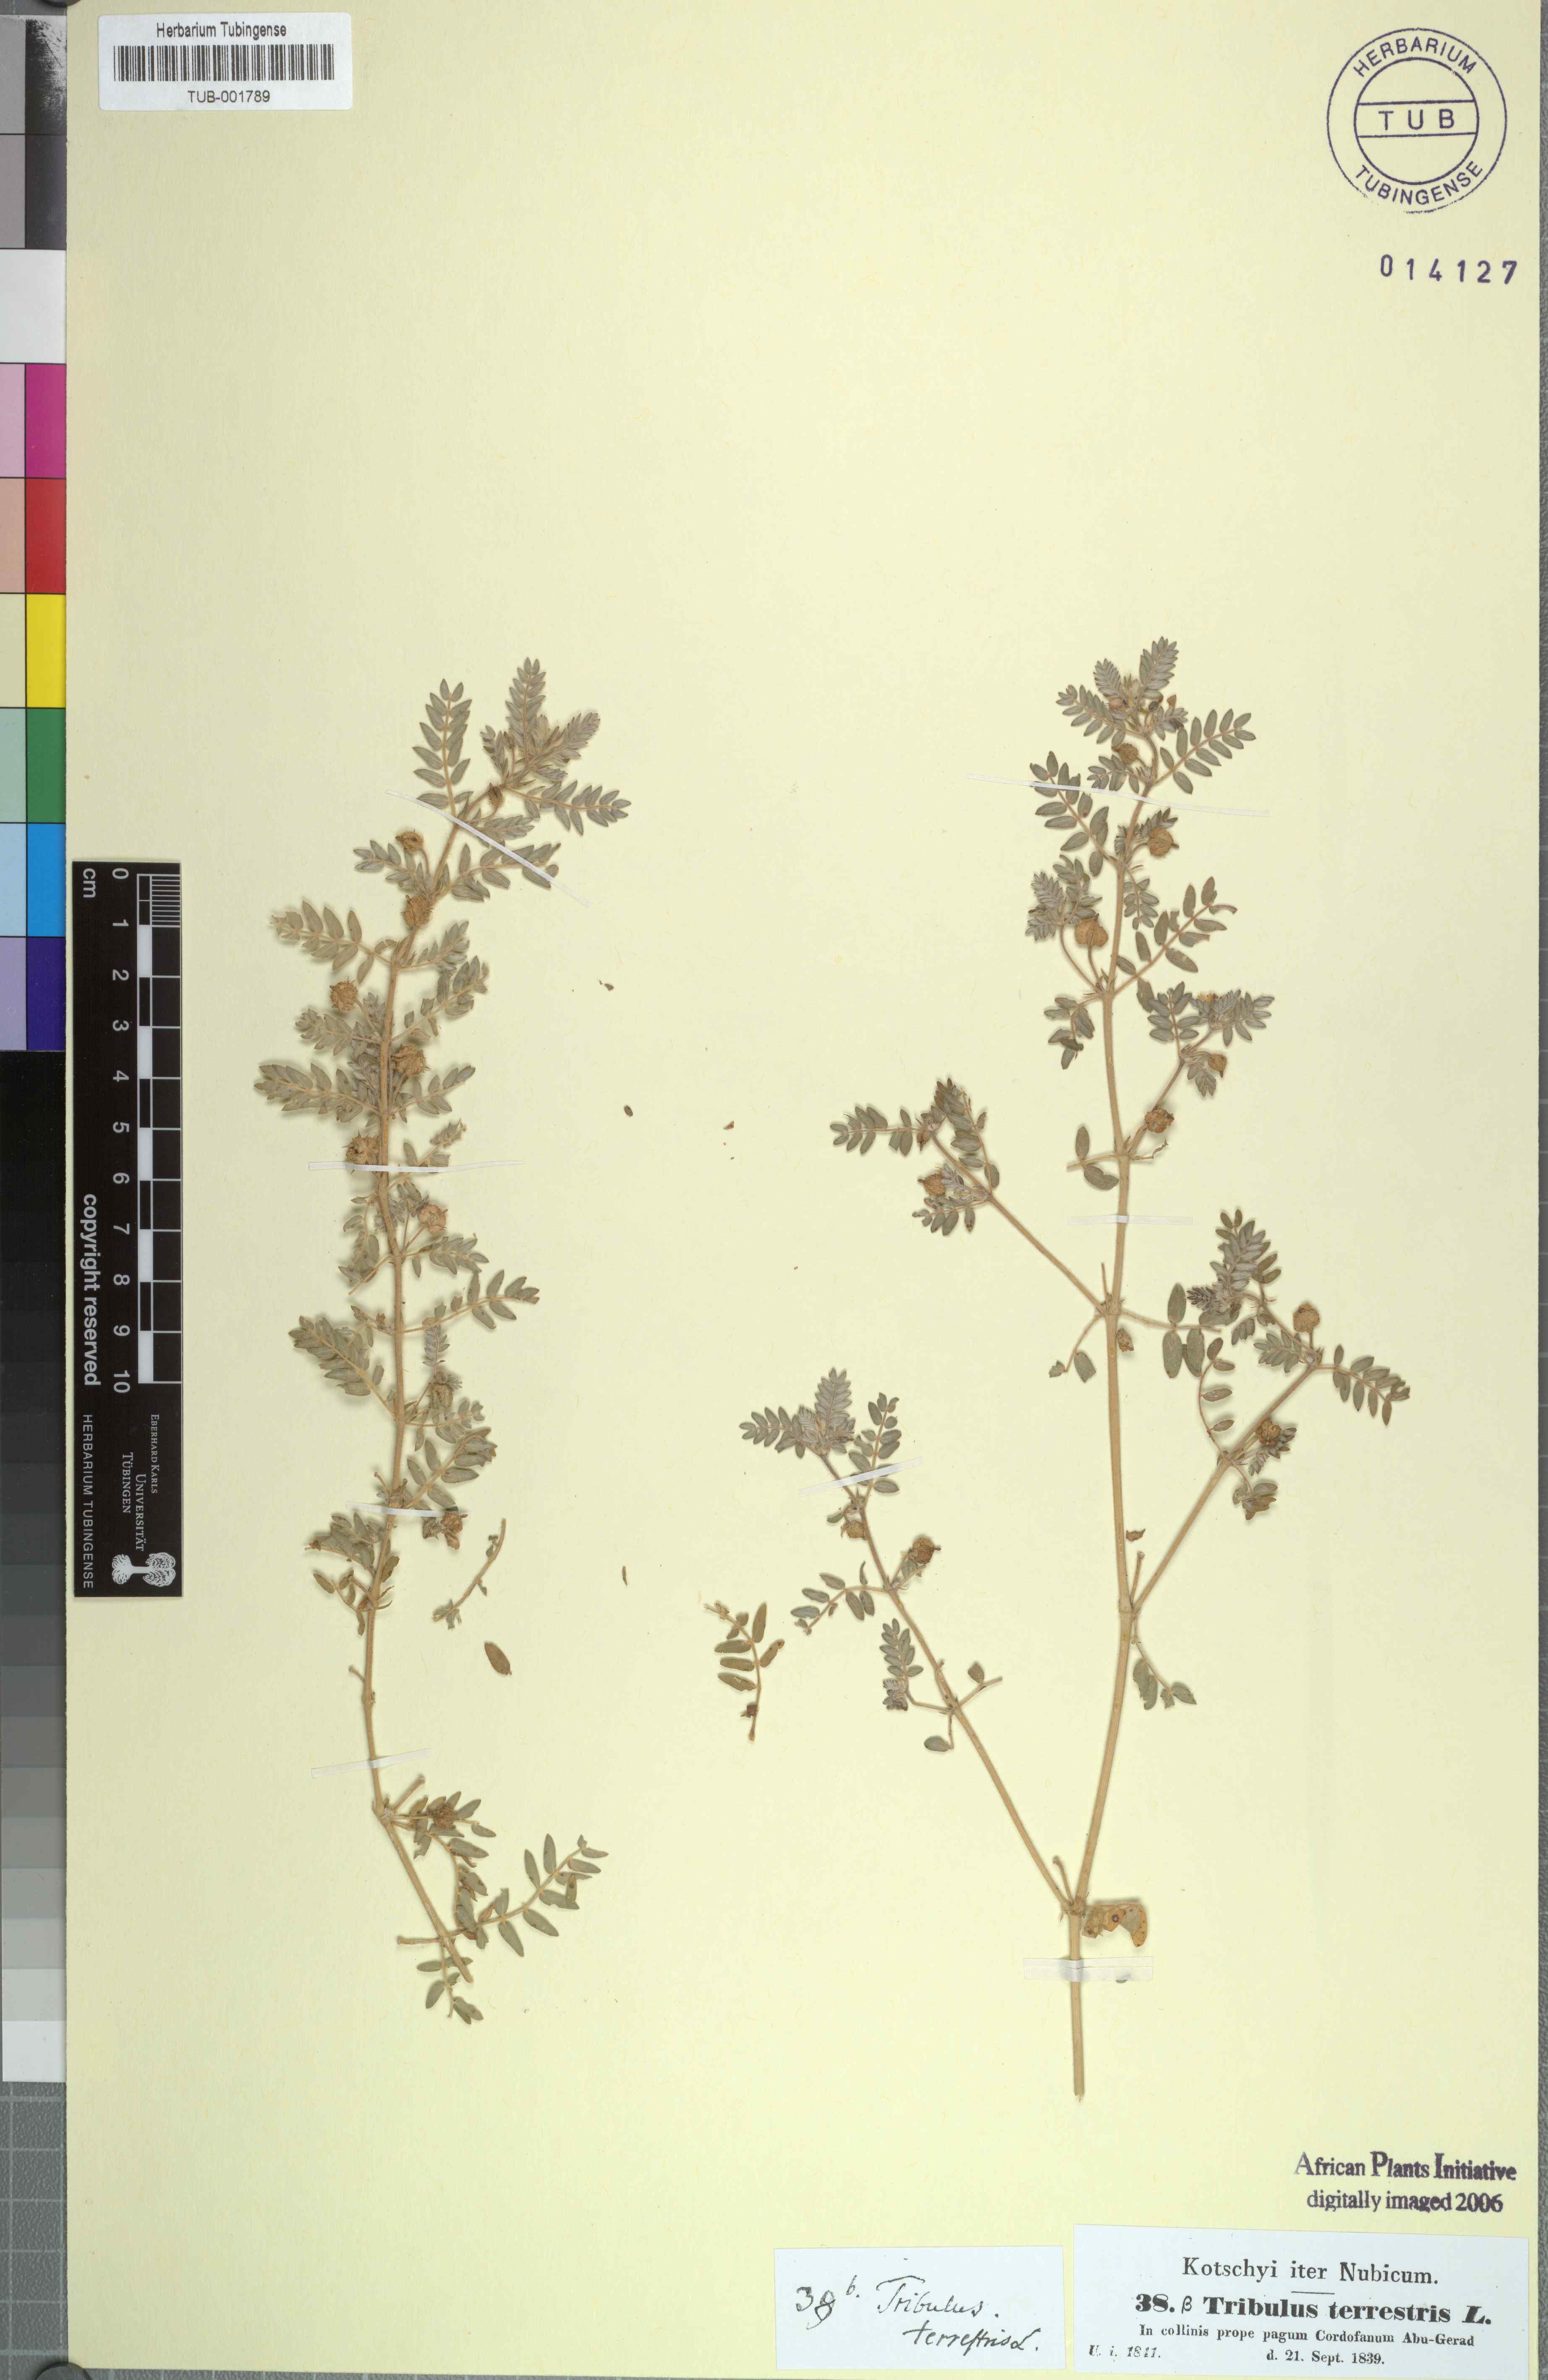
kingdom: Plantae
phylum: Tracheophyta
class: Magnoliopsida
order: Zygophyllales
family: Zygophyllaceae
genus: Tribulus
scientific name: Tribulus terrestris
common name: Puncturevine
